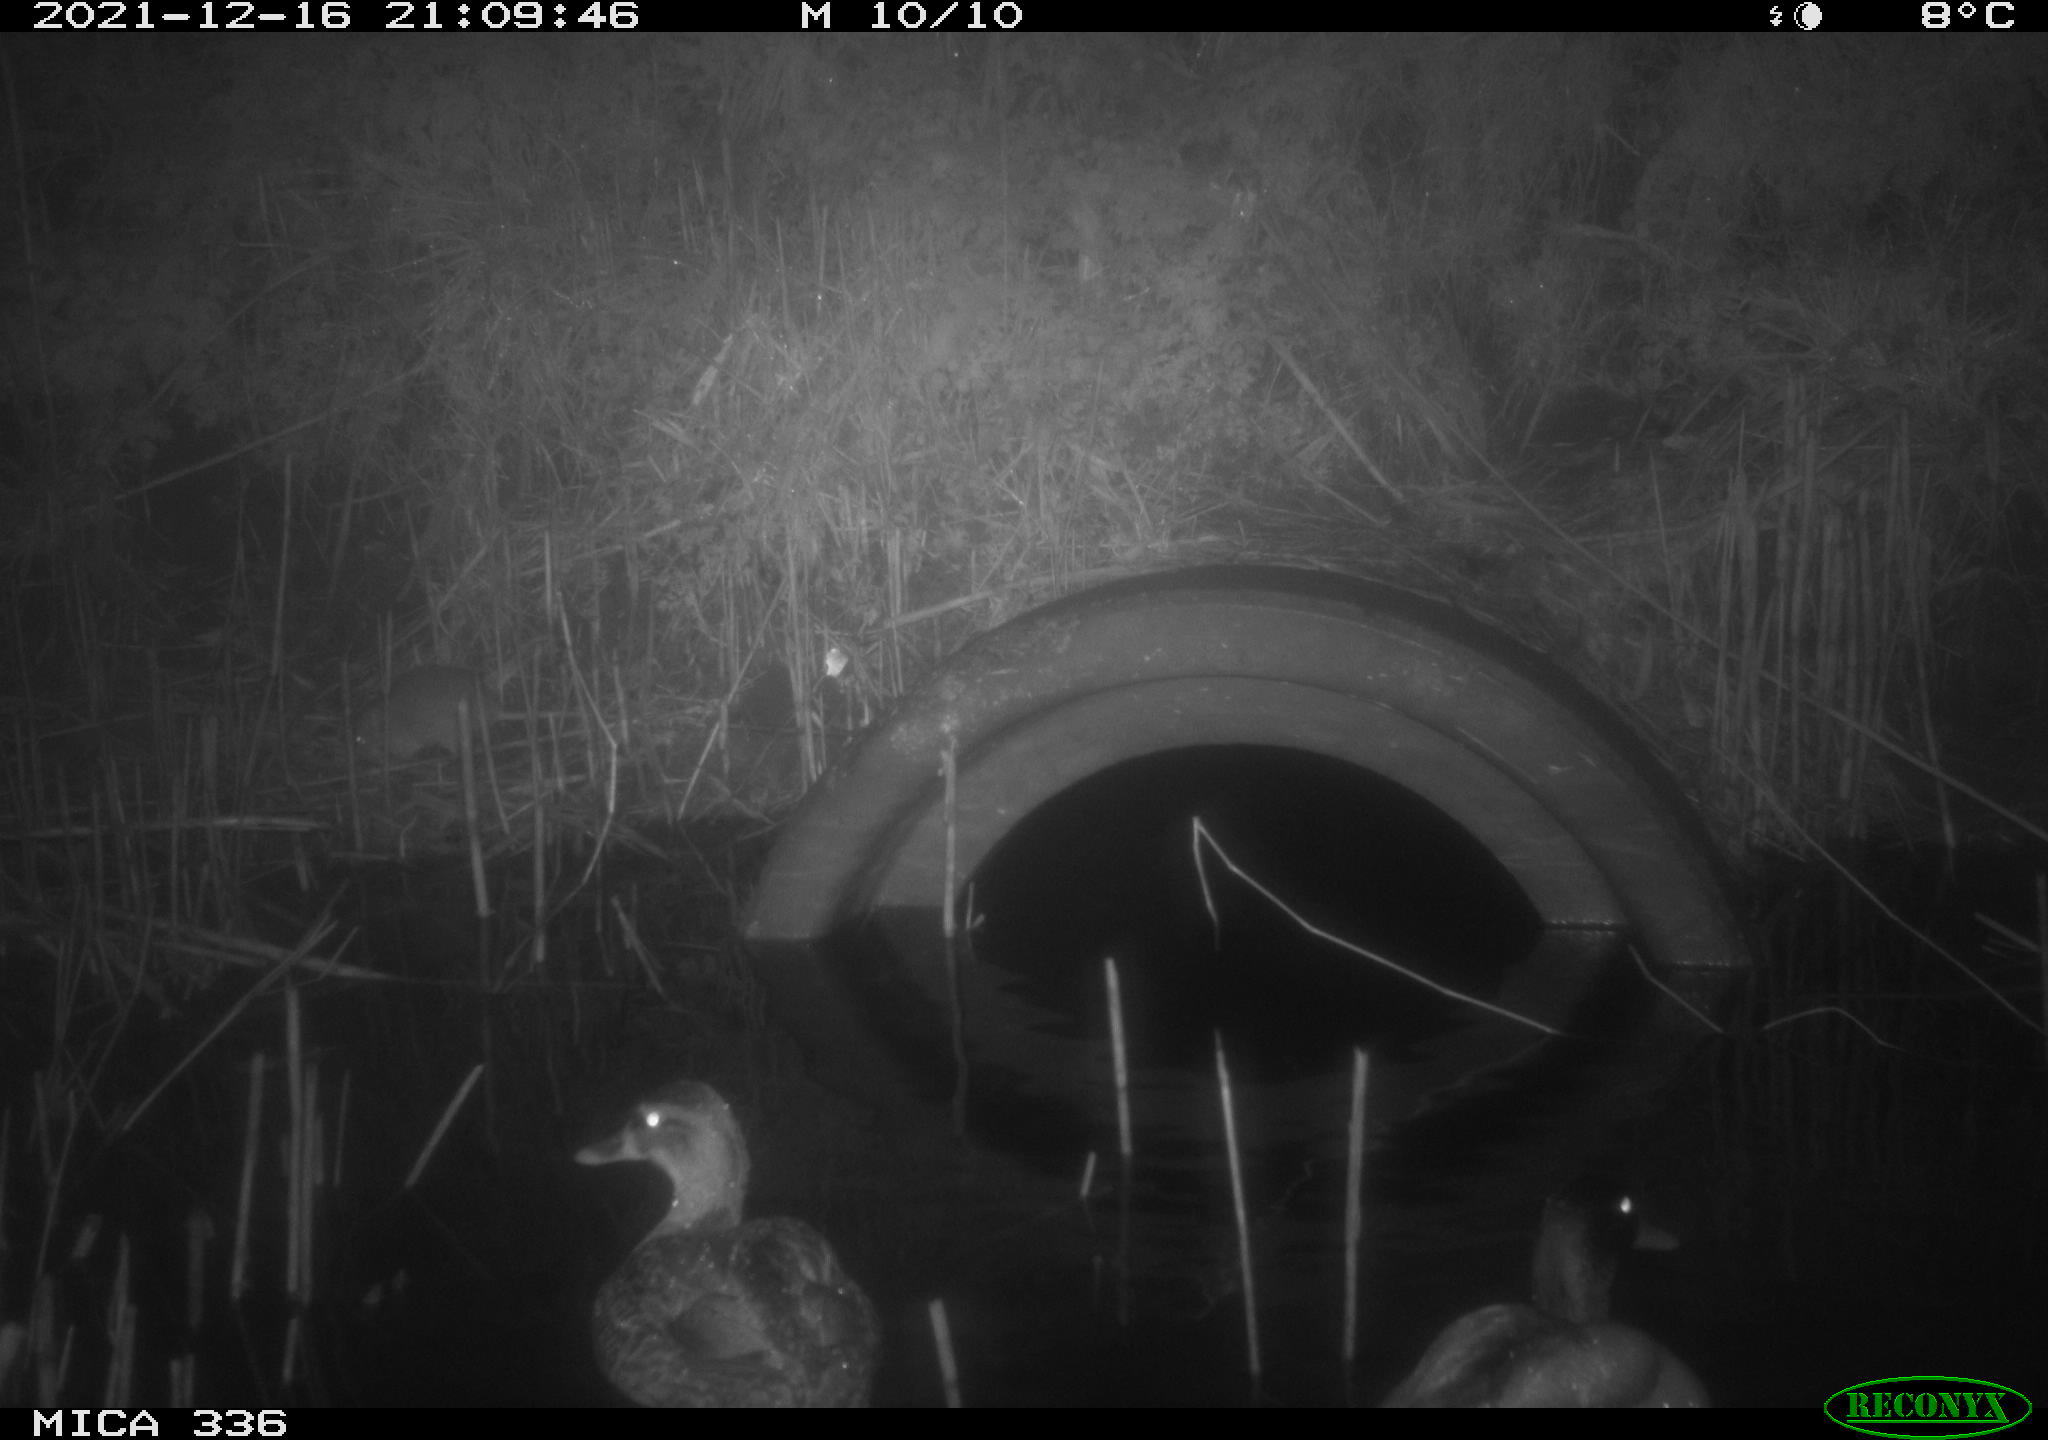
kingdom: Animalia
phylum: Chordata
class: Aves
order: Anseriformes
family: Anatidae
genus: Anas
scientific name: Anas platyrhynchos
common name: Mallard
